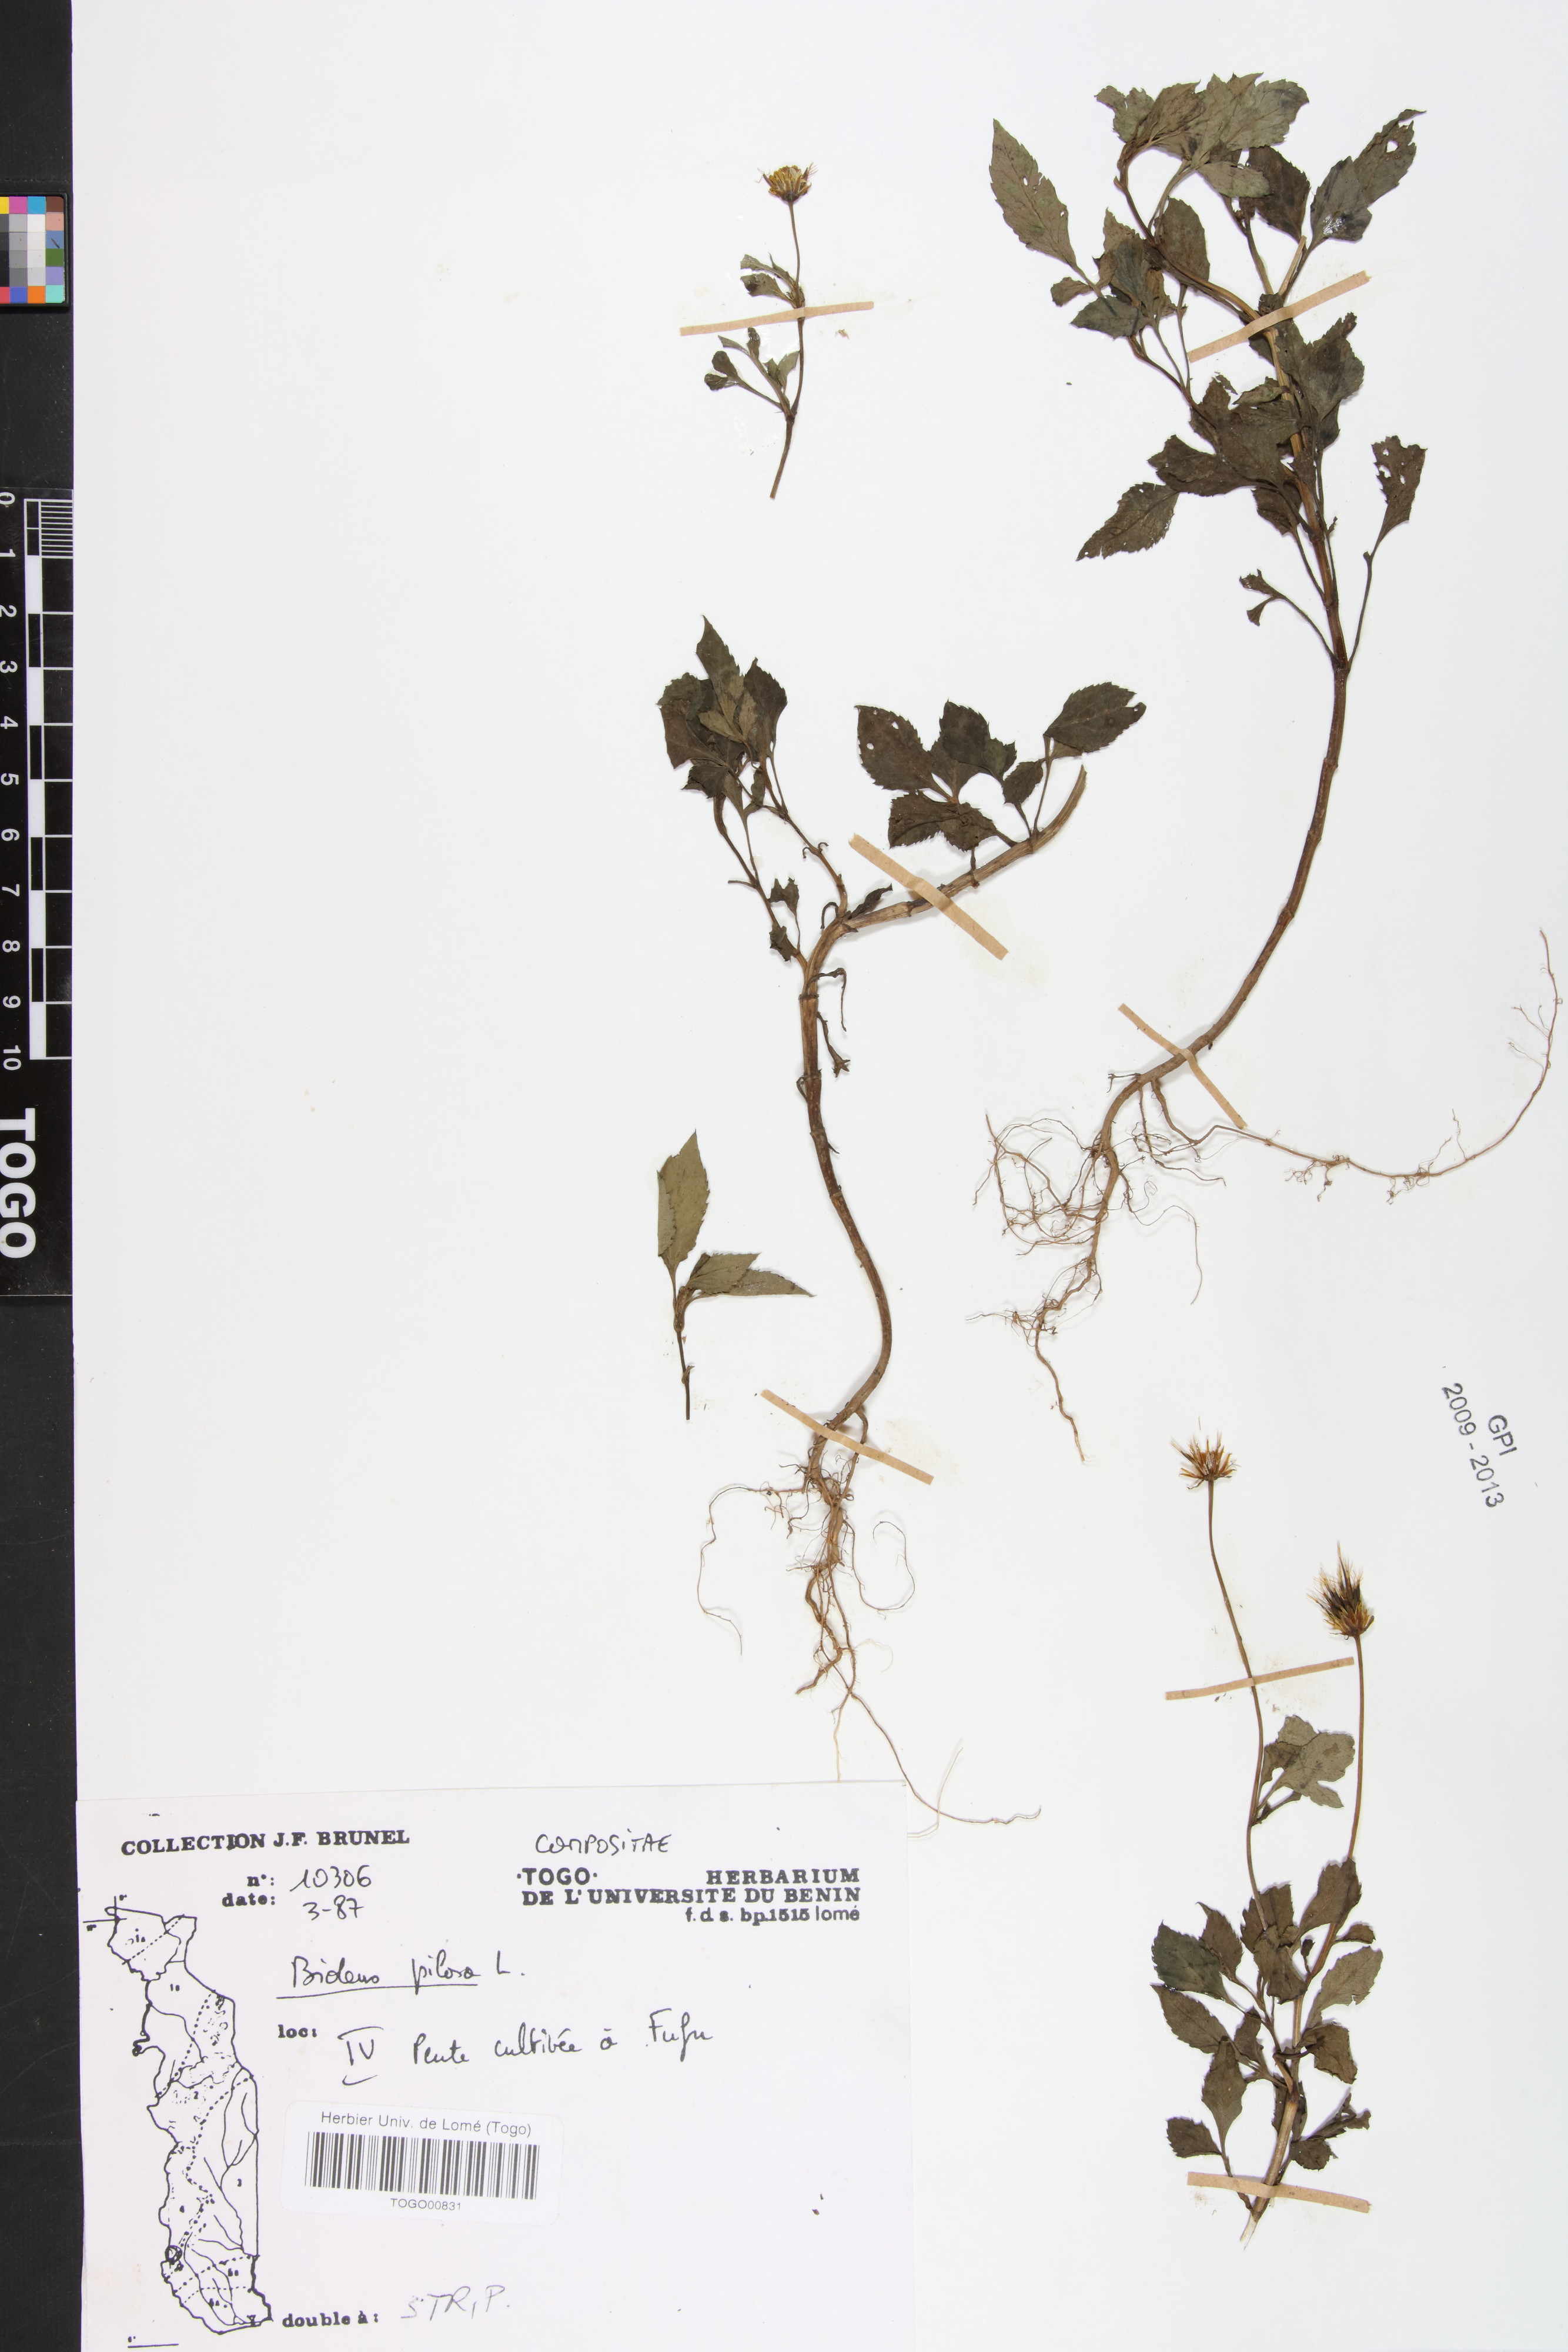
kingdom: Plantae
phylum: Tracheophyta
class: Magnoliopsida
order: Asterales
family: Asteraceae
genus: Bidens
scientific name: Bidens pilosa
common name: Black-jack
